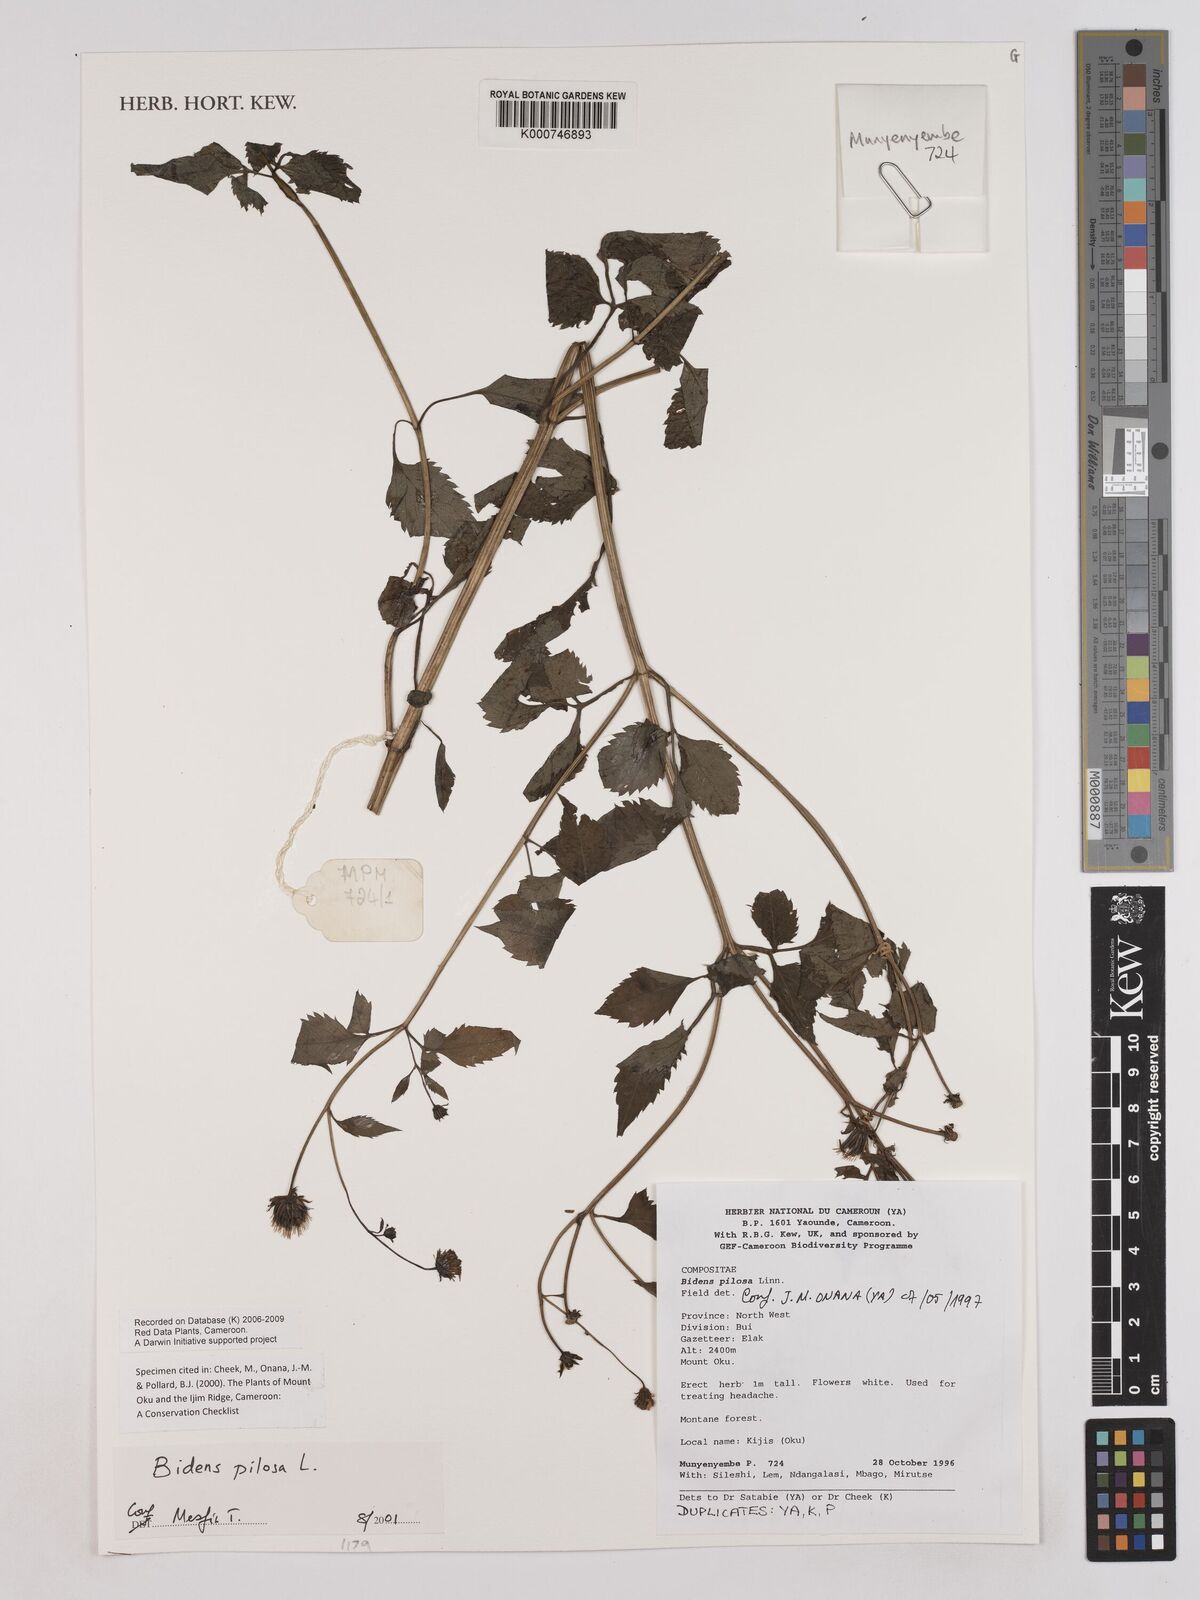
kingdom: Plantae
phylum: Tracheophyta
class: Magnoliopsida
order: Asterales
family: Asteraceae
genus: Bidens
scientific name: Bidens pilosa
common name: Black-jack
